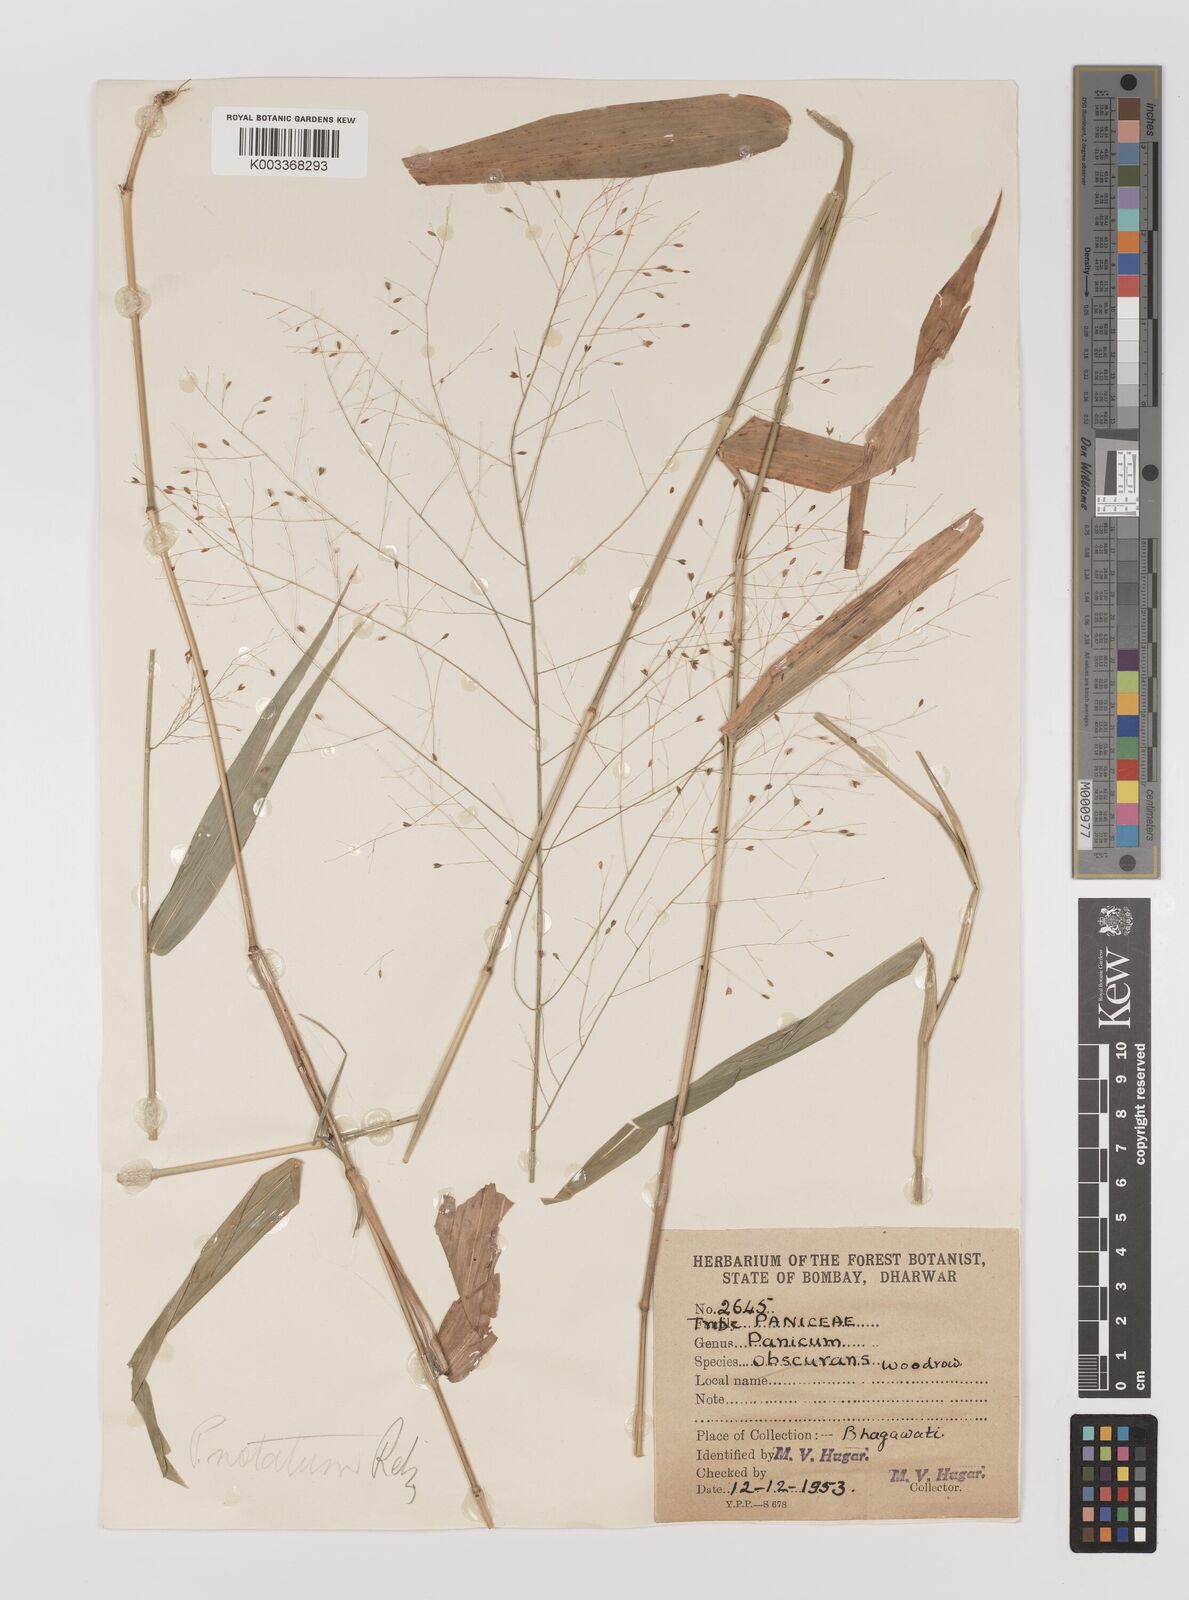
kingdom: Plantae
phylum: Tracheophyta
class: Liliopsida
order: Poales
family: Poaceae
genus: Panicum
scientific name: Panicum notatum
